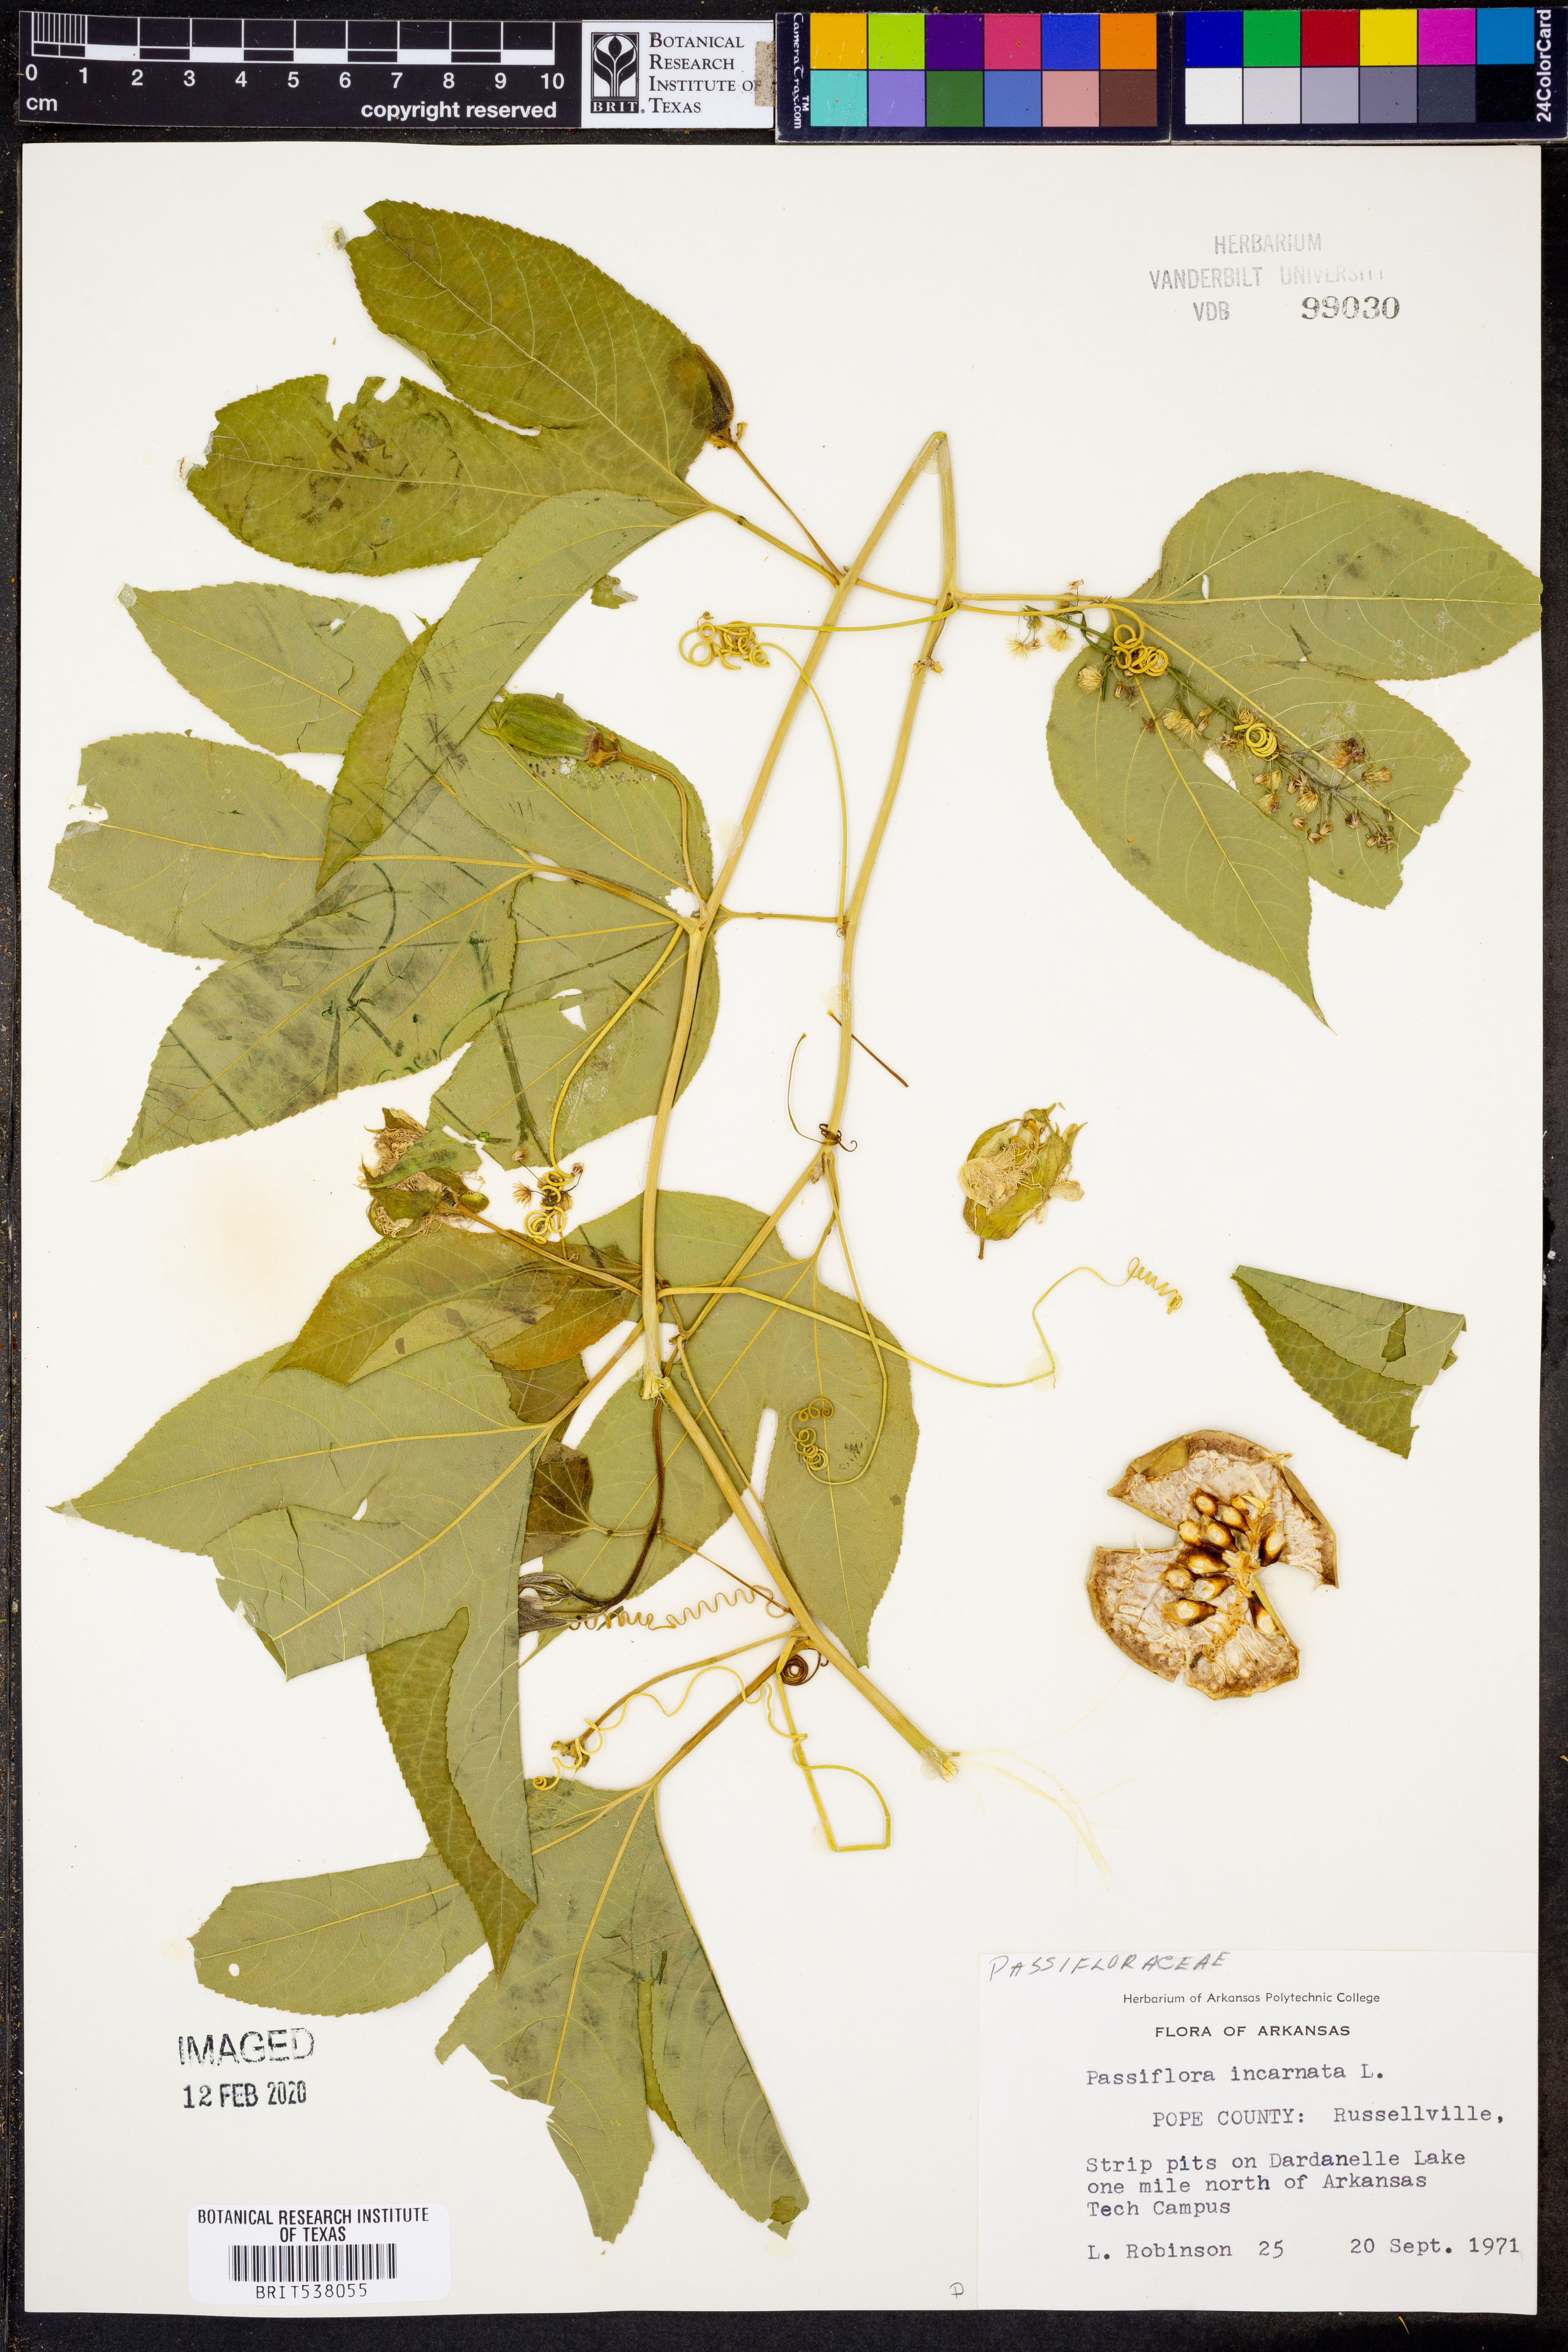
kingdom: Plantae
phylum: Tracheophyta
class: Magnoliopsida
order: Malpighiales
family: Passifloraceae
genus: Passiflora
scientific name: Passiflora incarnata
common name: Apricot-vine
